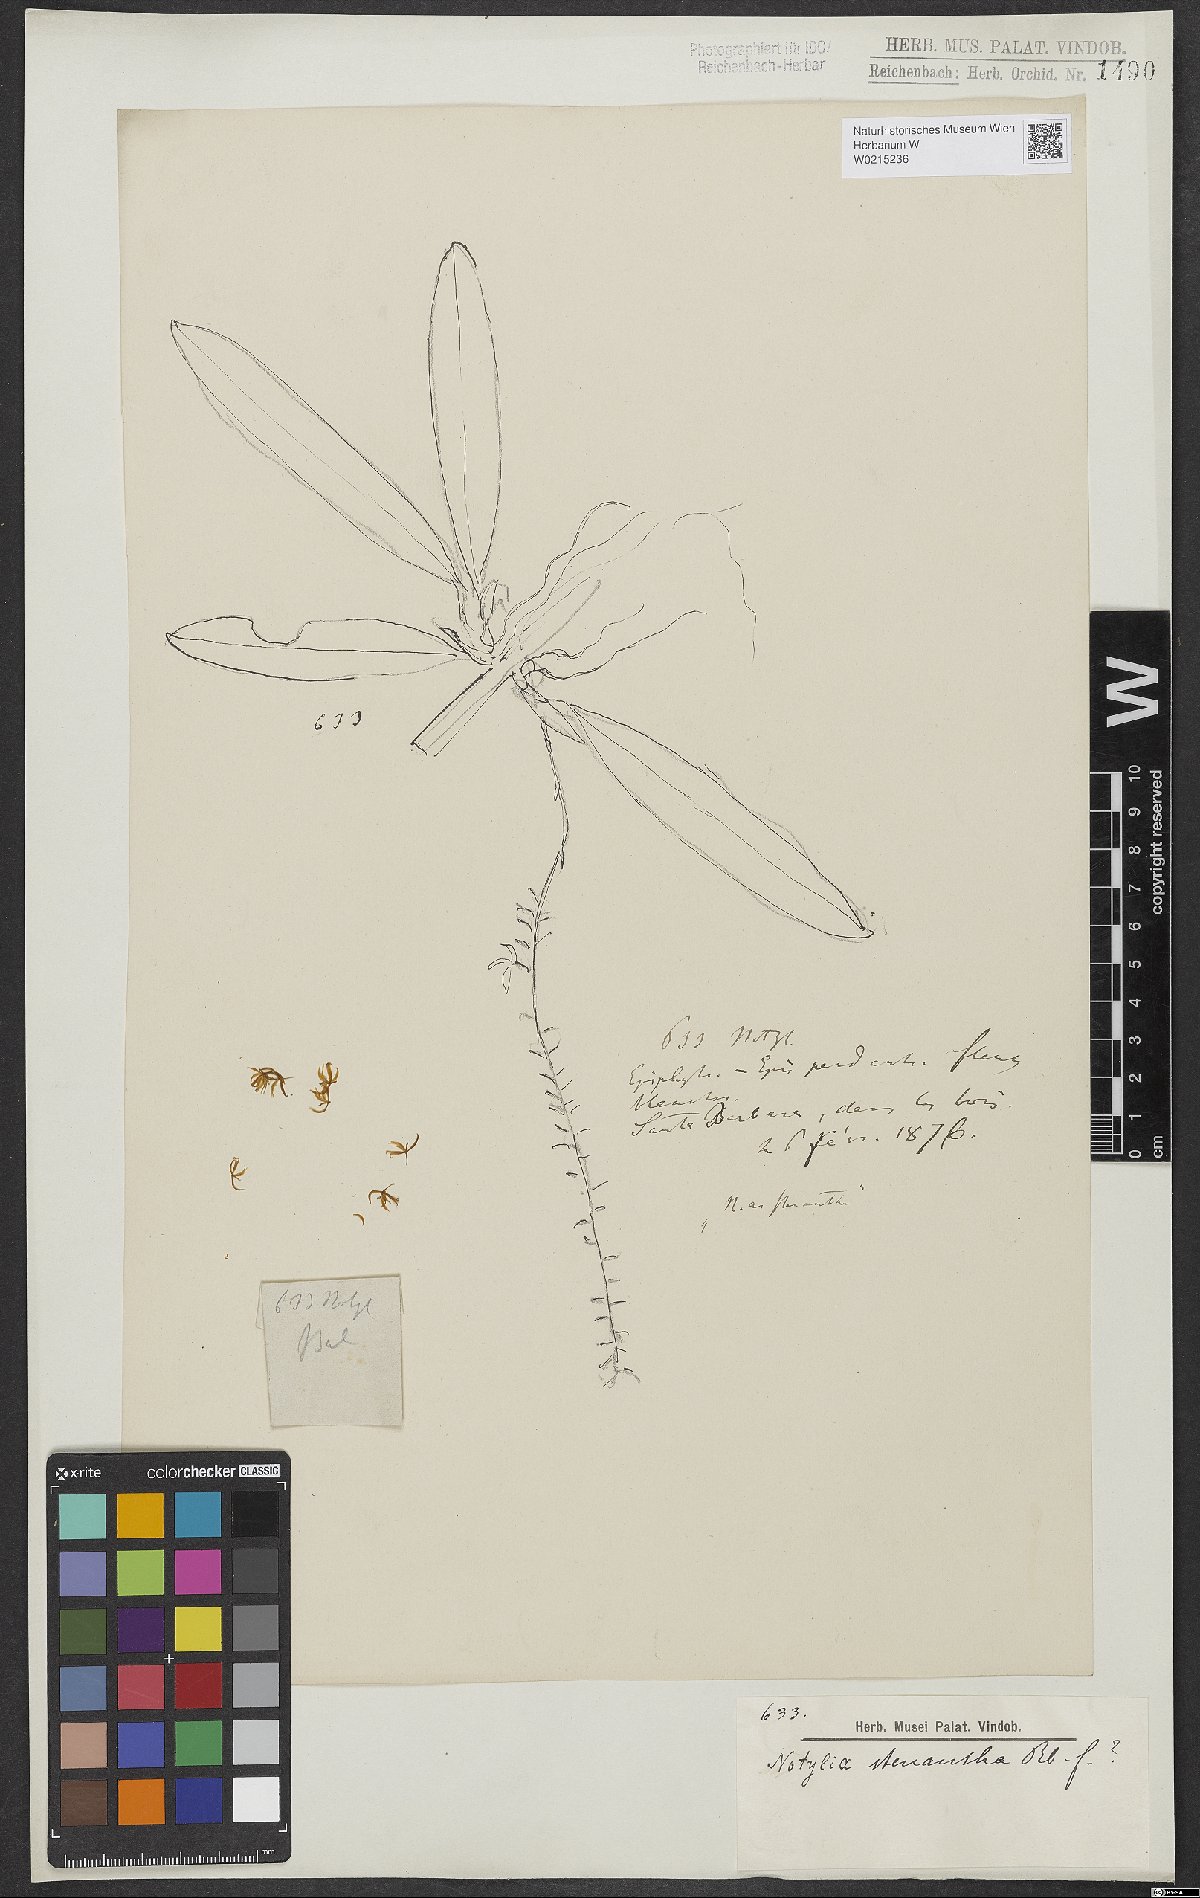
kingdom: Plantae
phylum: Tracheophyta
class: Liliopsida
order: Asparagales
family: Orchidaceae
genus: Notylia
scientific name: Notylia stenantha
